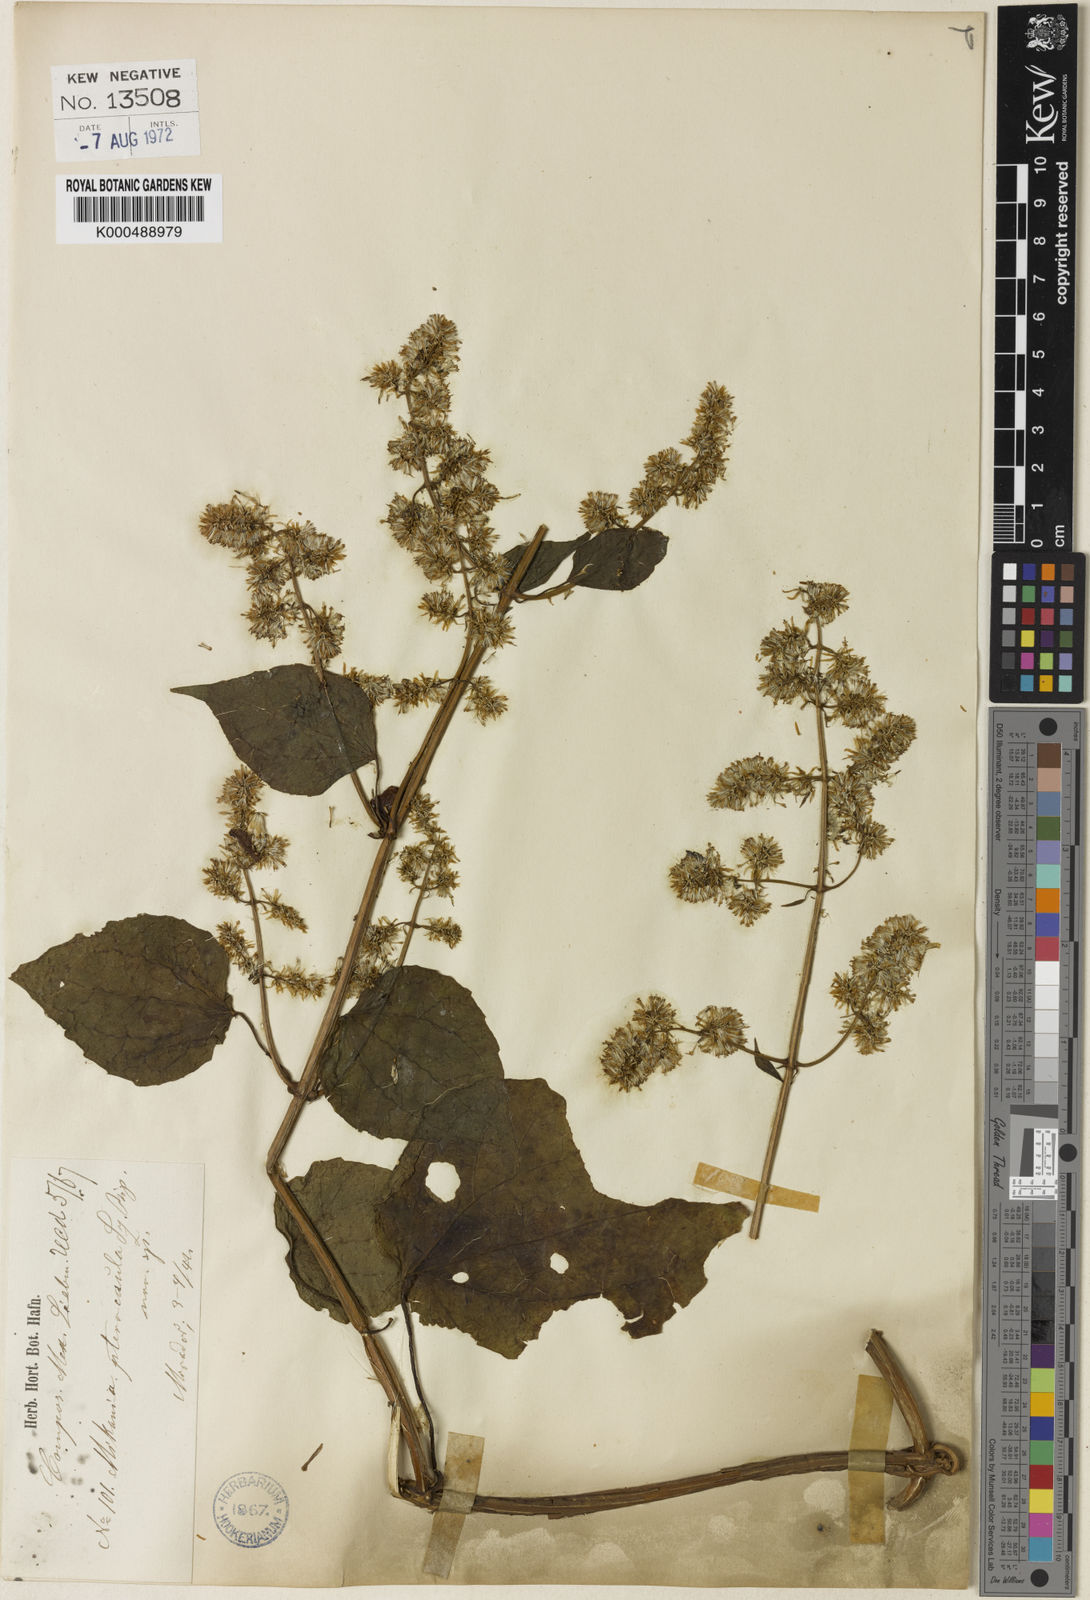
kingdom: Plantae
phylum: Tracheophyta
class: Magnoliopsida
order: Asterales
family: Asteraceae
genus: Mikania
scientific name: Mikania pterocaula
